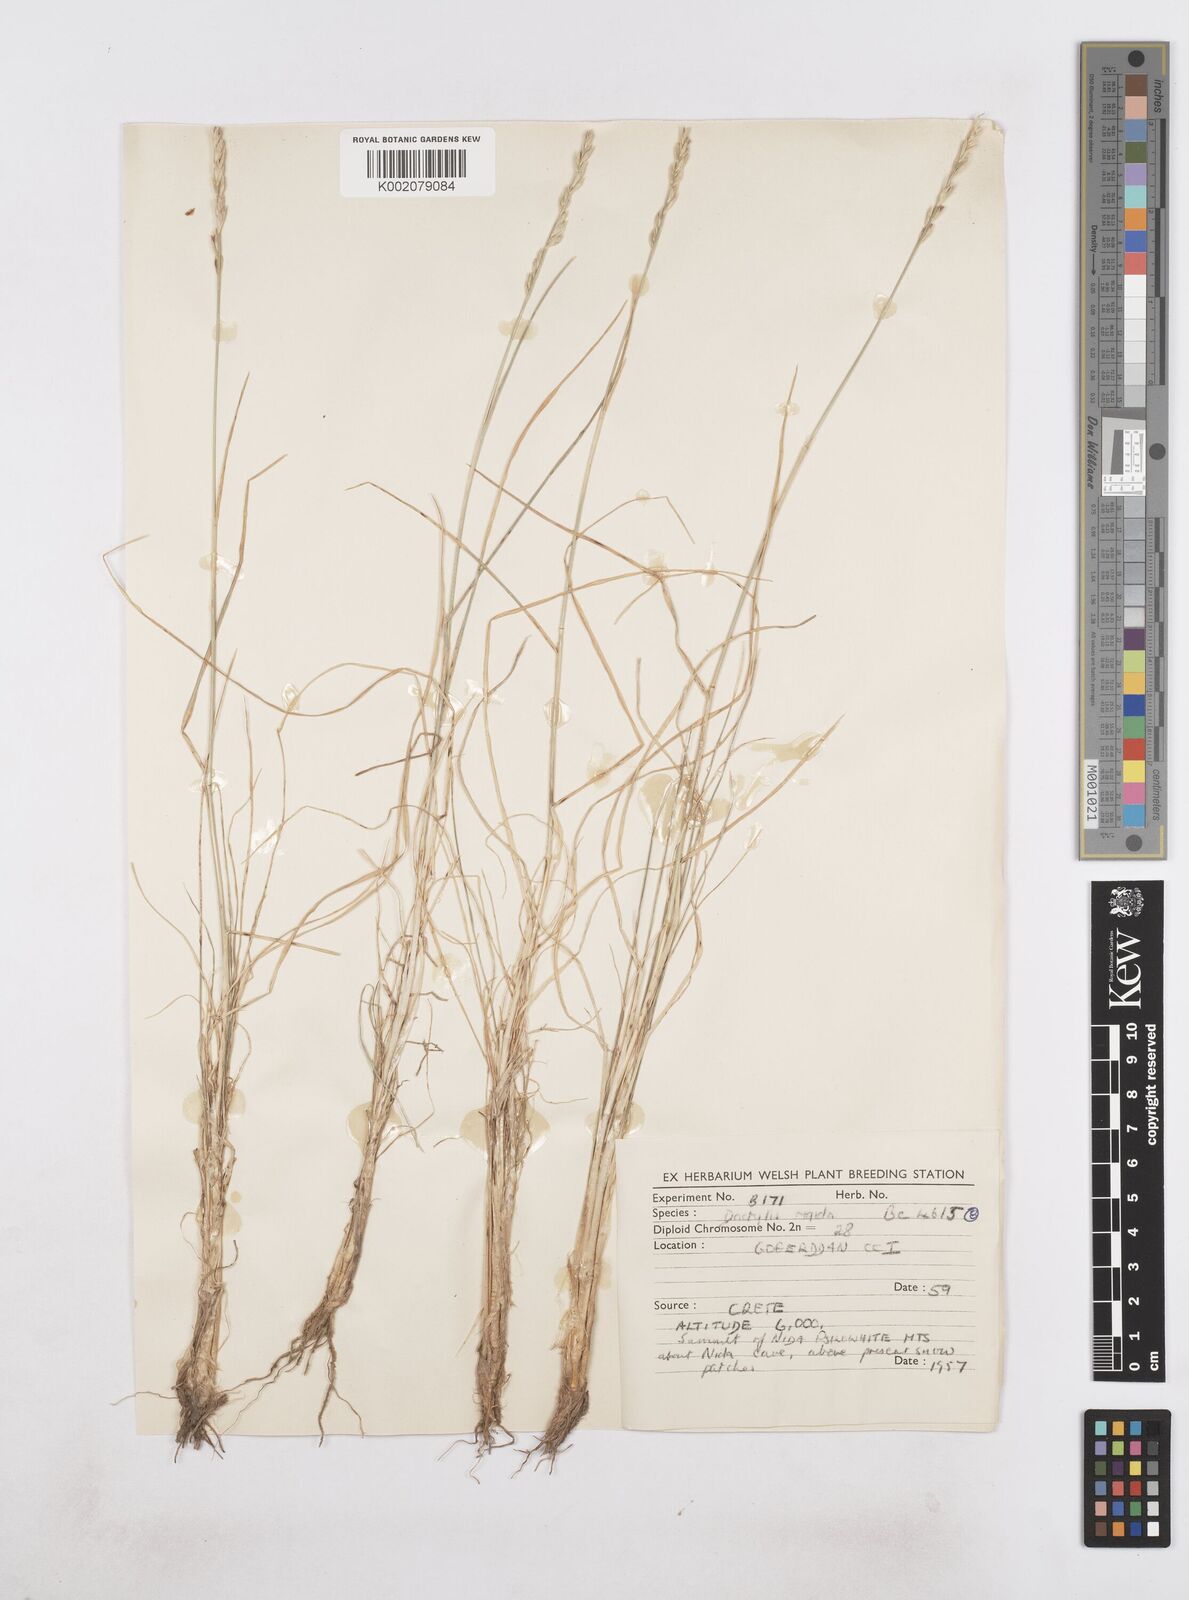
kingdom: Plantae
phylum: Tracheophyta
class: Liliopsida
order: Poales
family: Poaceae
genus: Dactylis
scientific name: Dactylis glomerata
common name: Orchardgrass
